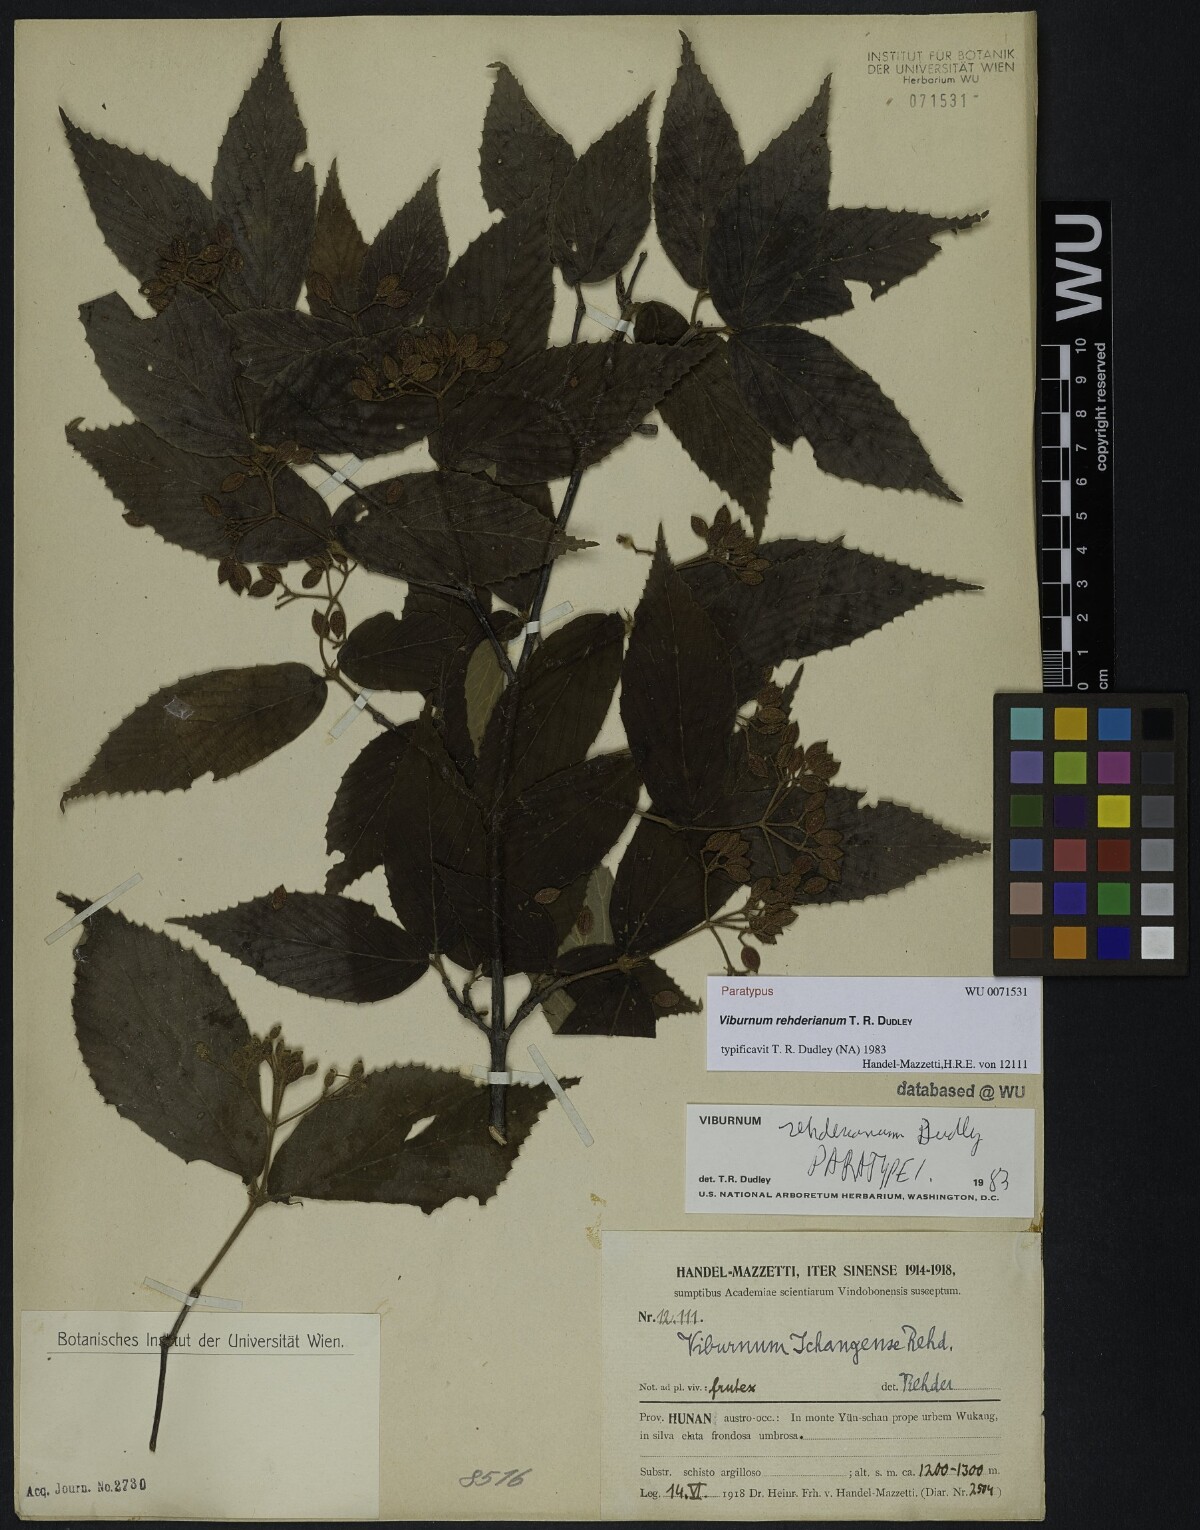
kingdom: Plantae
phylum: Tracheophyta
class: Magnoliopsida
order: Dipsacales
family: Viburnaceae
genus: Viburnum
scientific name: Viburnum taitoense
